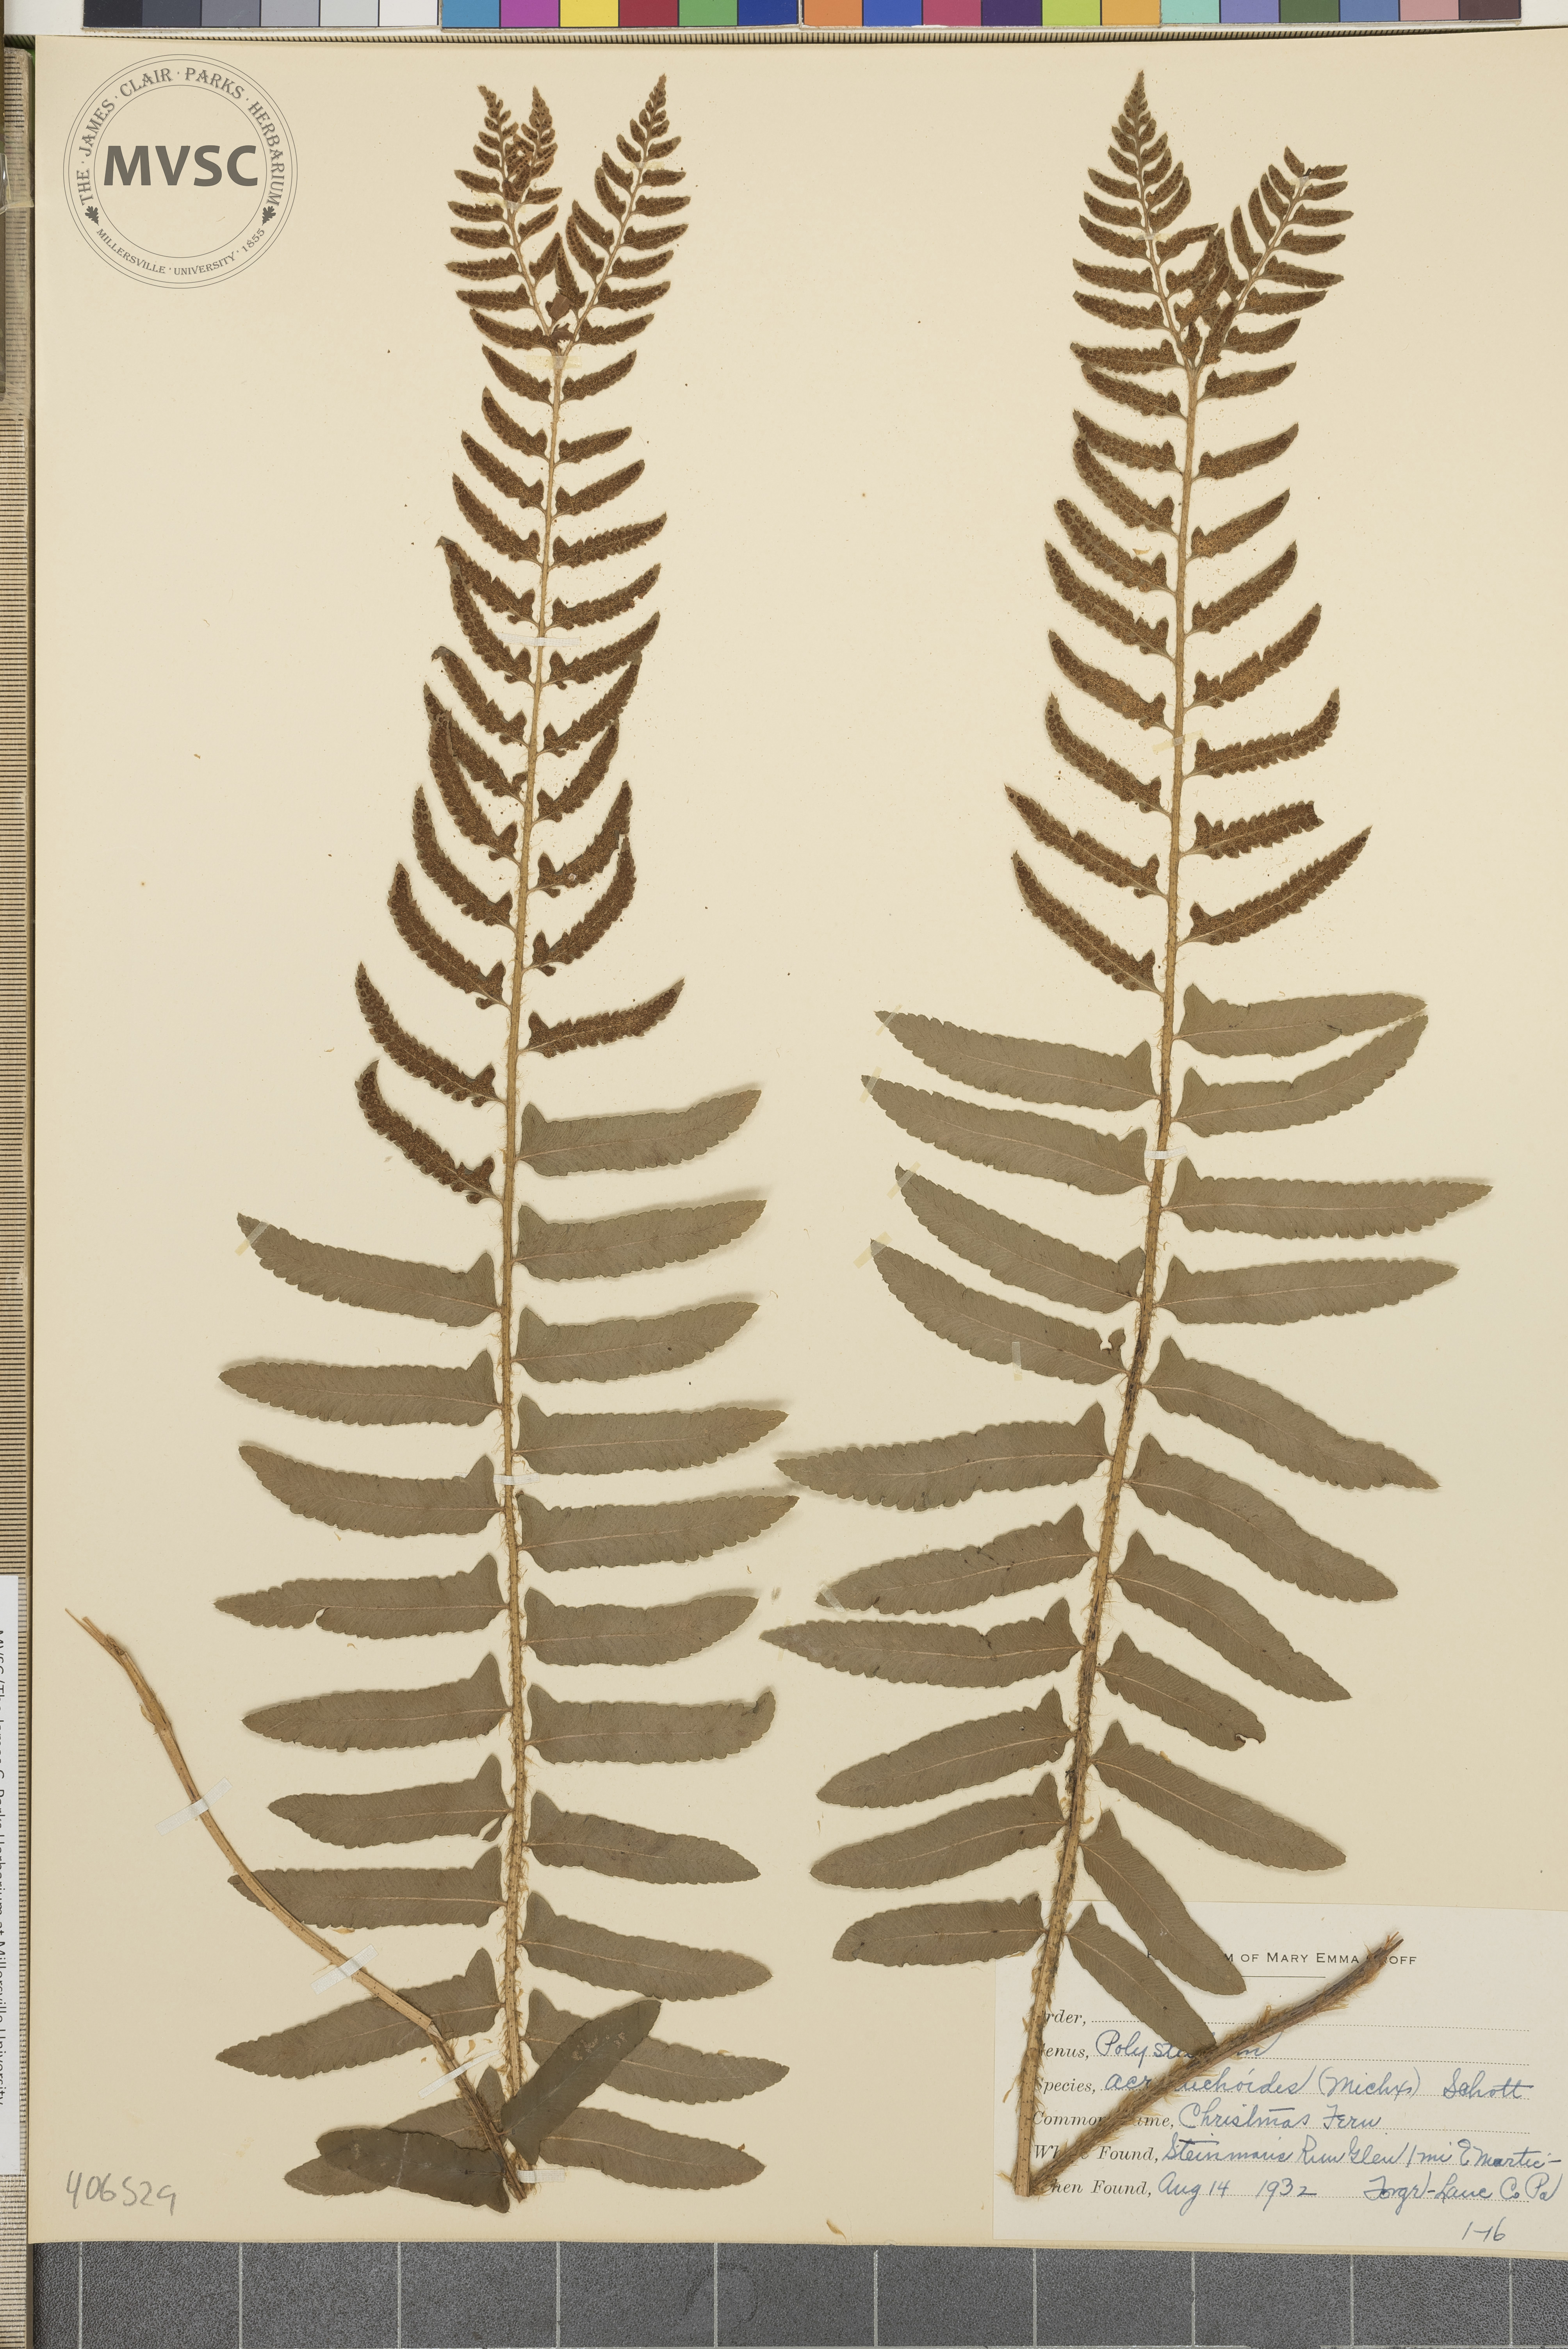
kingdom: Plantae
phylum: Tracheophyta
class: Polypodiopsida
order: Polypodiales
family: Dryopteridaceae
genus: Polystichum
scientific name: Polystichum acrostichoides
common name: Christmas fern
